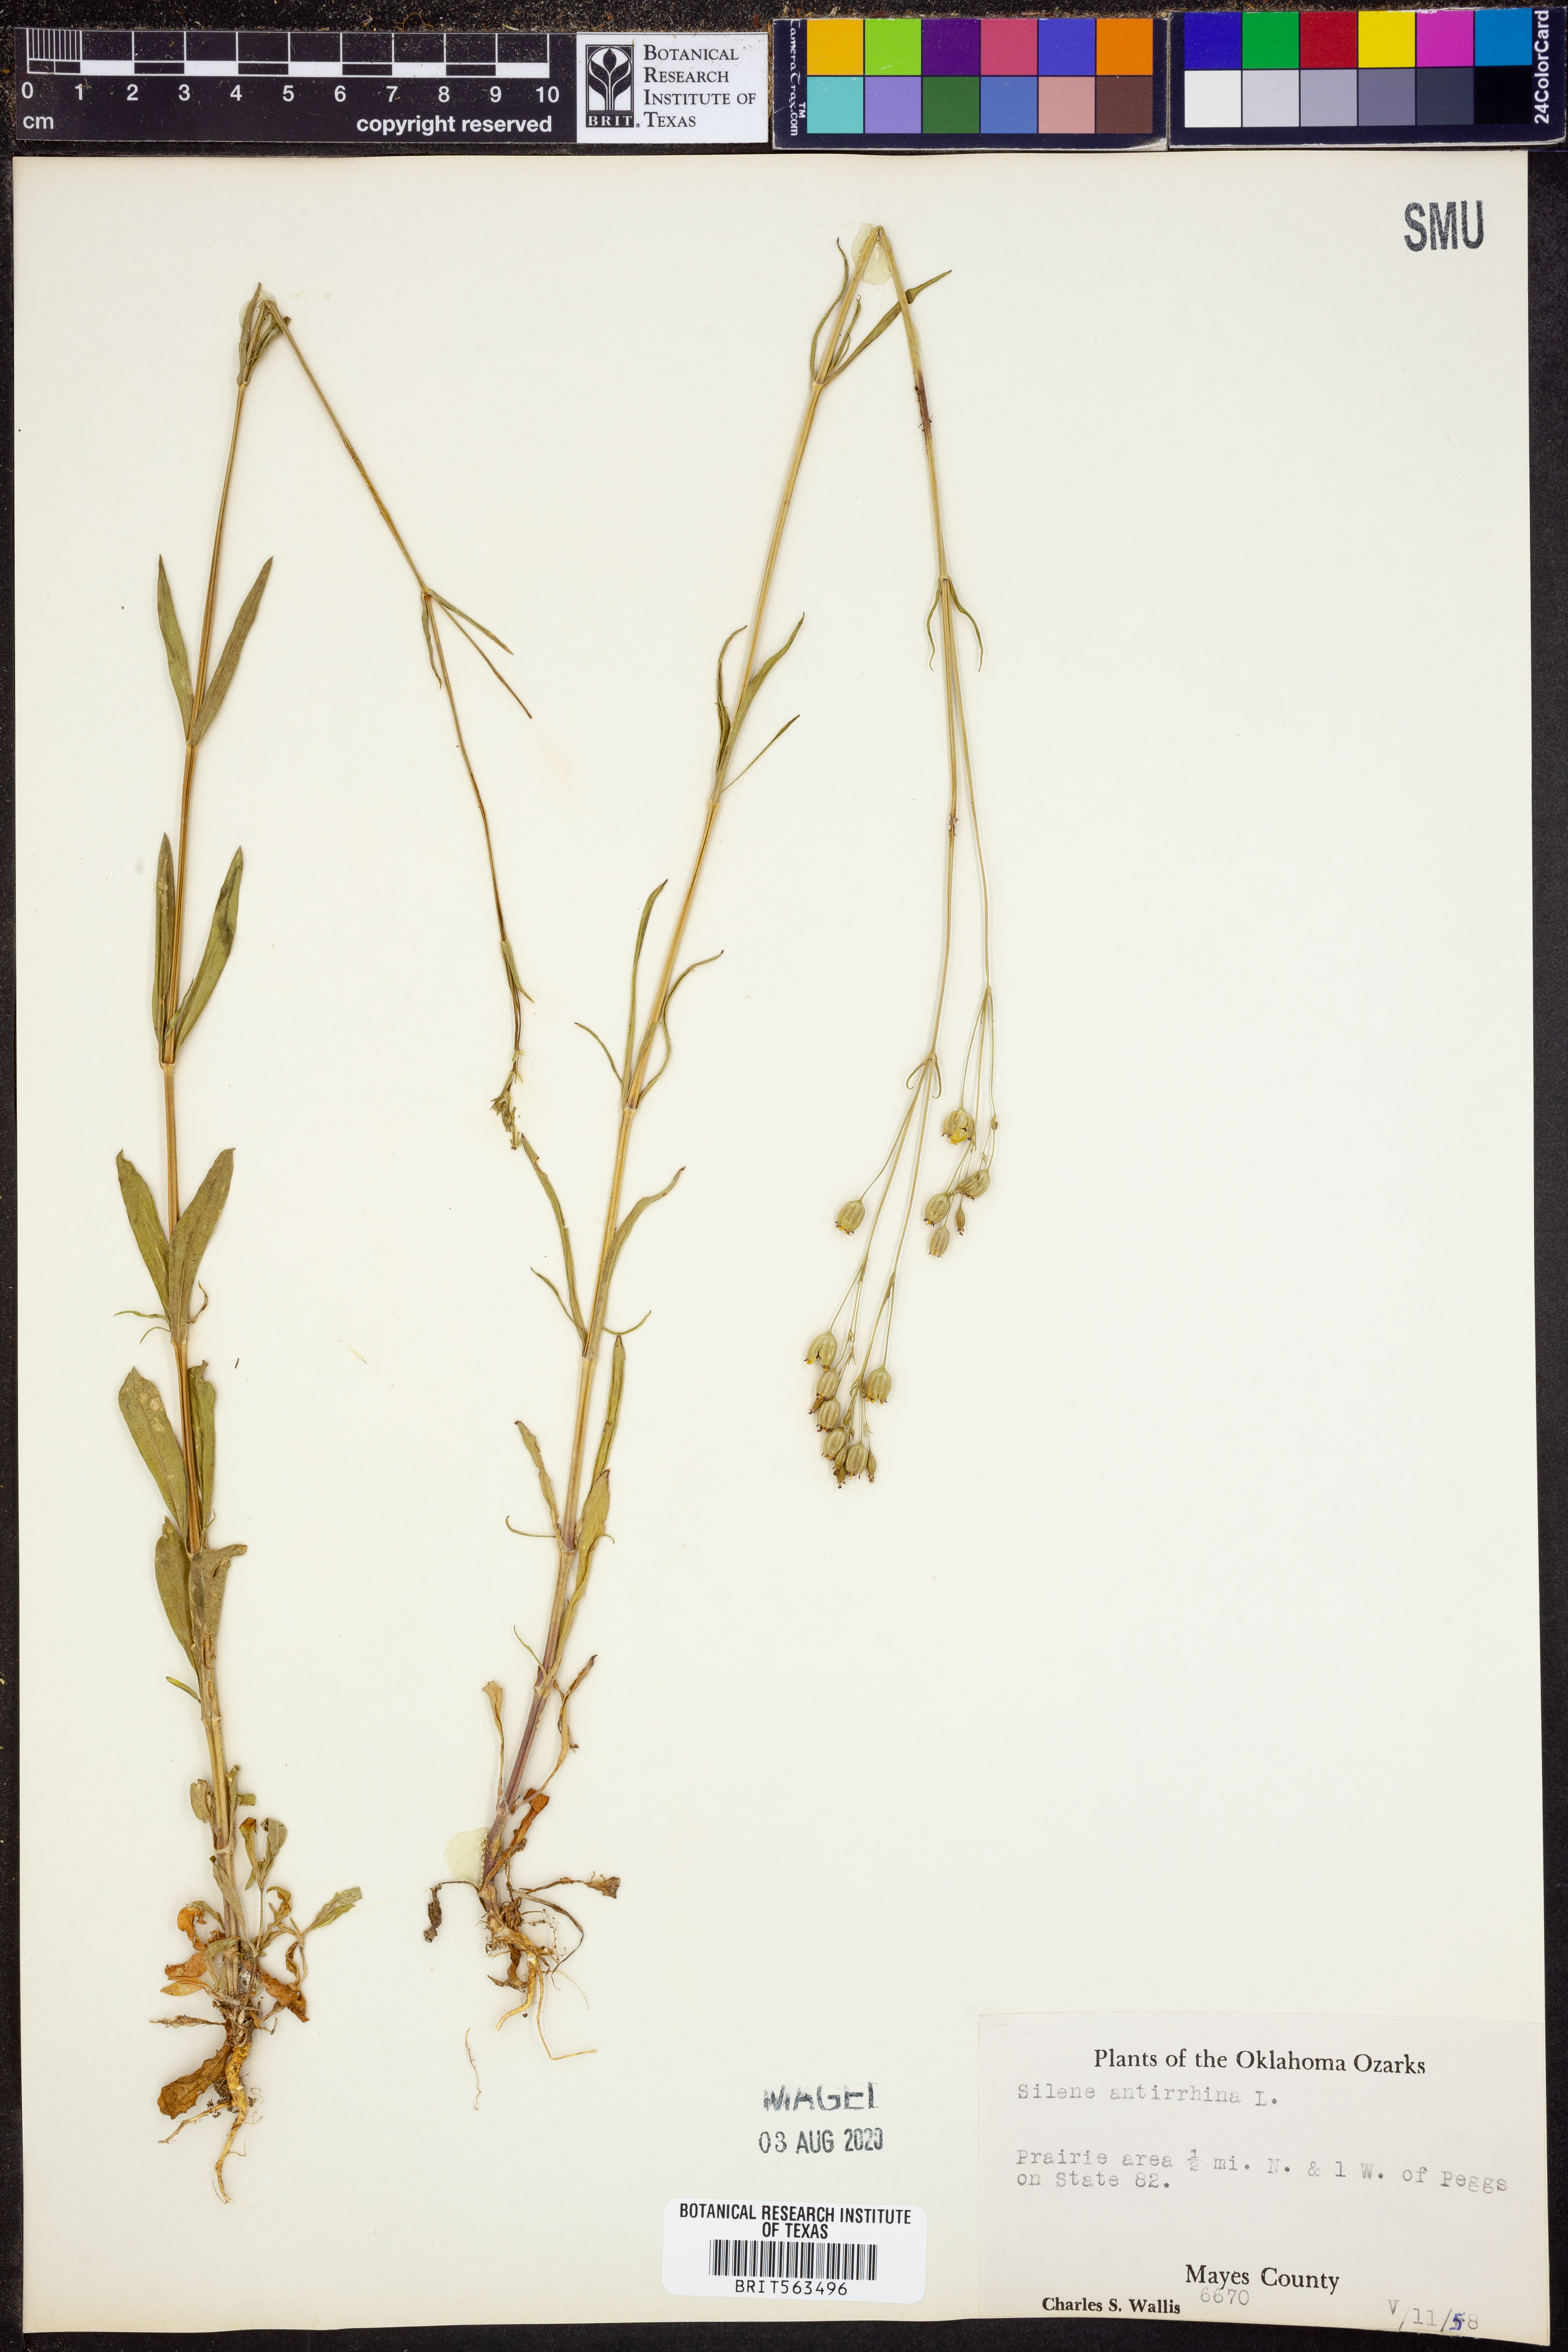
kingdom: Plantae
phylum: Tracheophyta
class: Magnoliopsida
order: Caryophyllales
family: Caryophyllaceae
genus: Silene
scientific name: Silene antirrhina
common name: Sleepy catchfly
